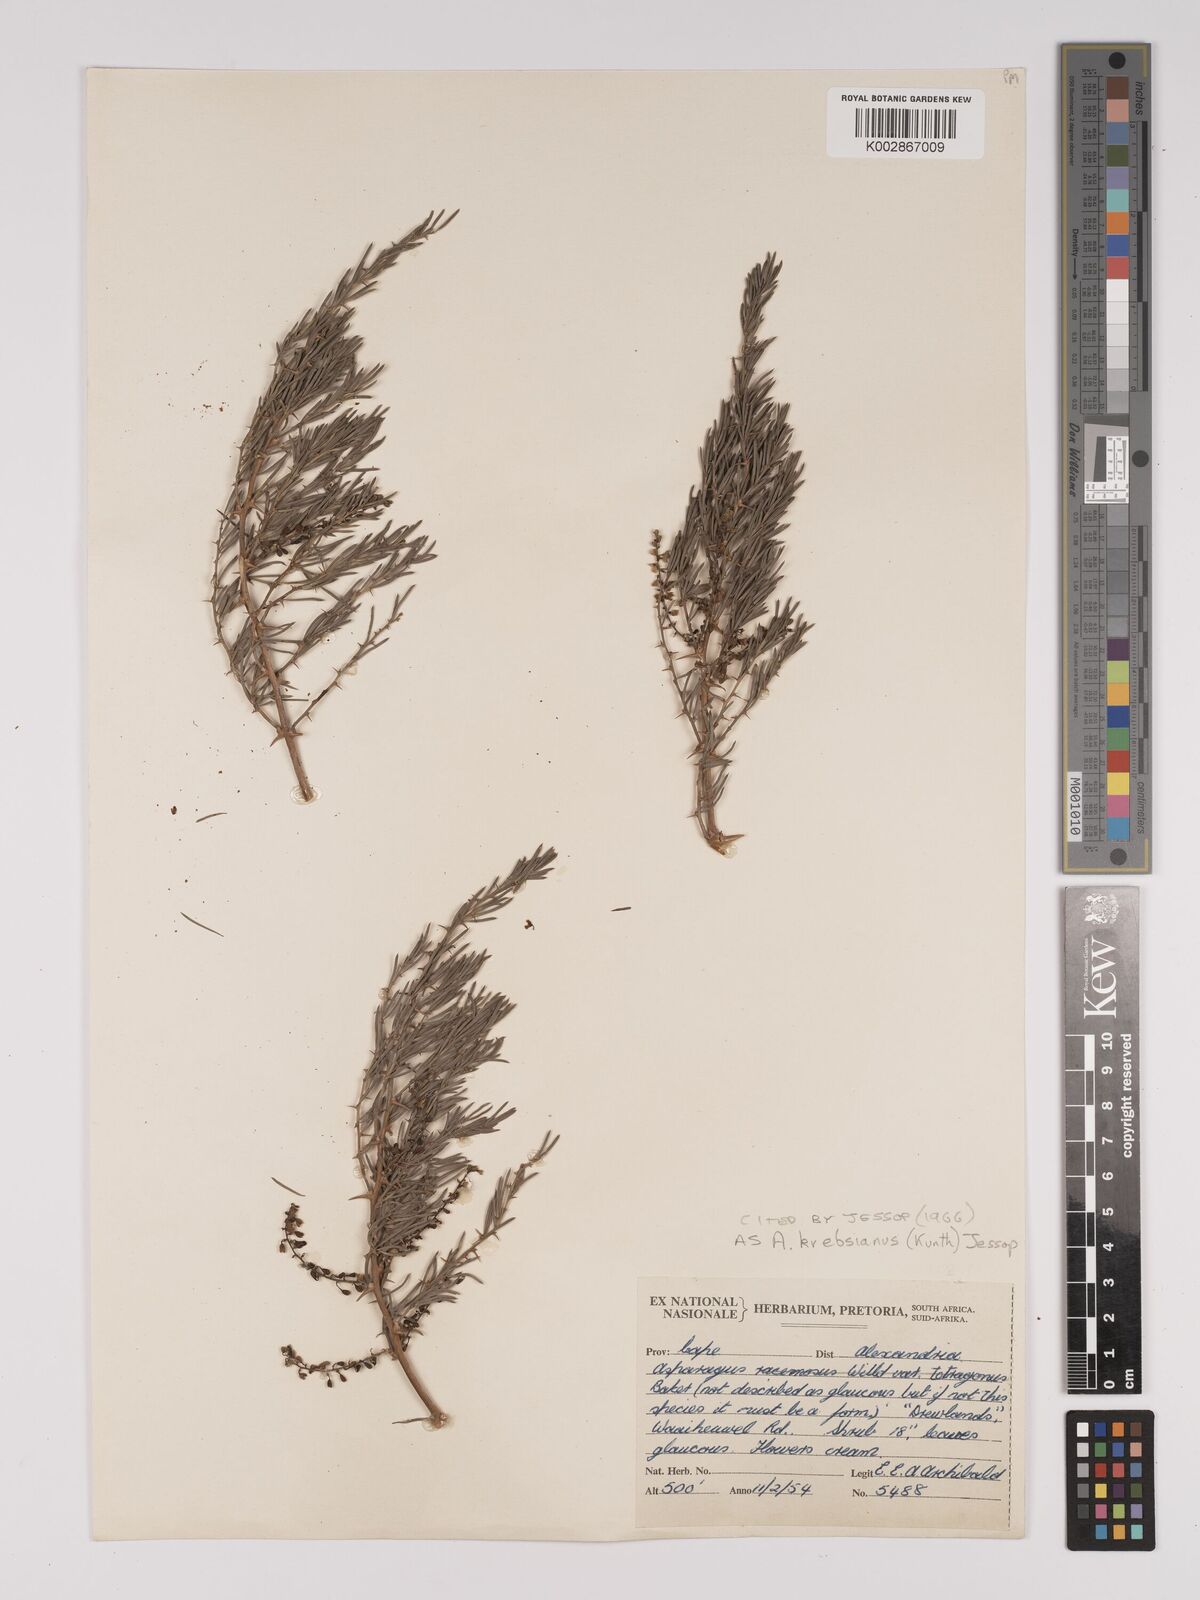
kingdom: Plantae
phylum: Tracheophyta
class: Liliopsida
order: Asparagales
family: Asparagaceae
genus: Asparagus
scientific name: Asparagus breslerianus
